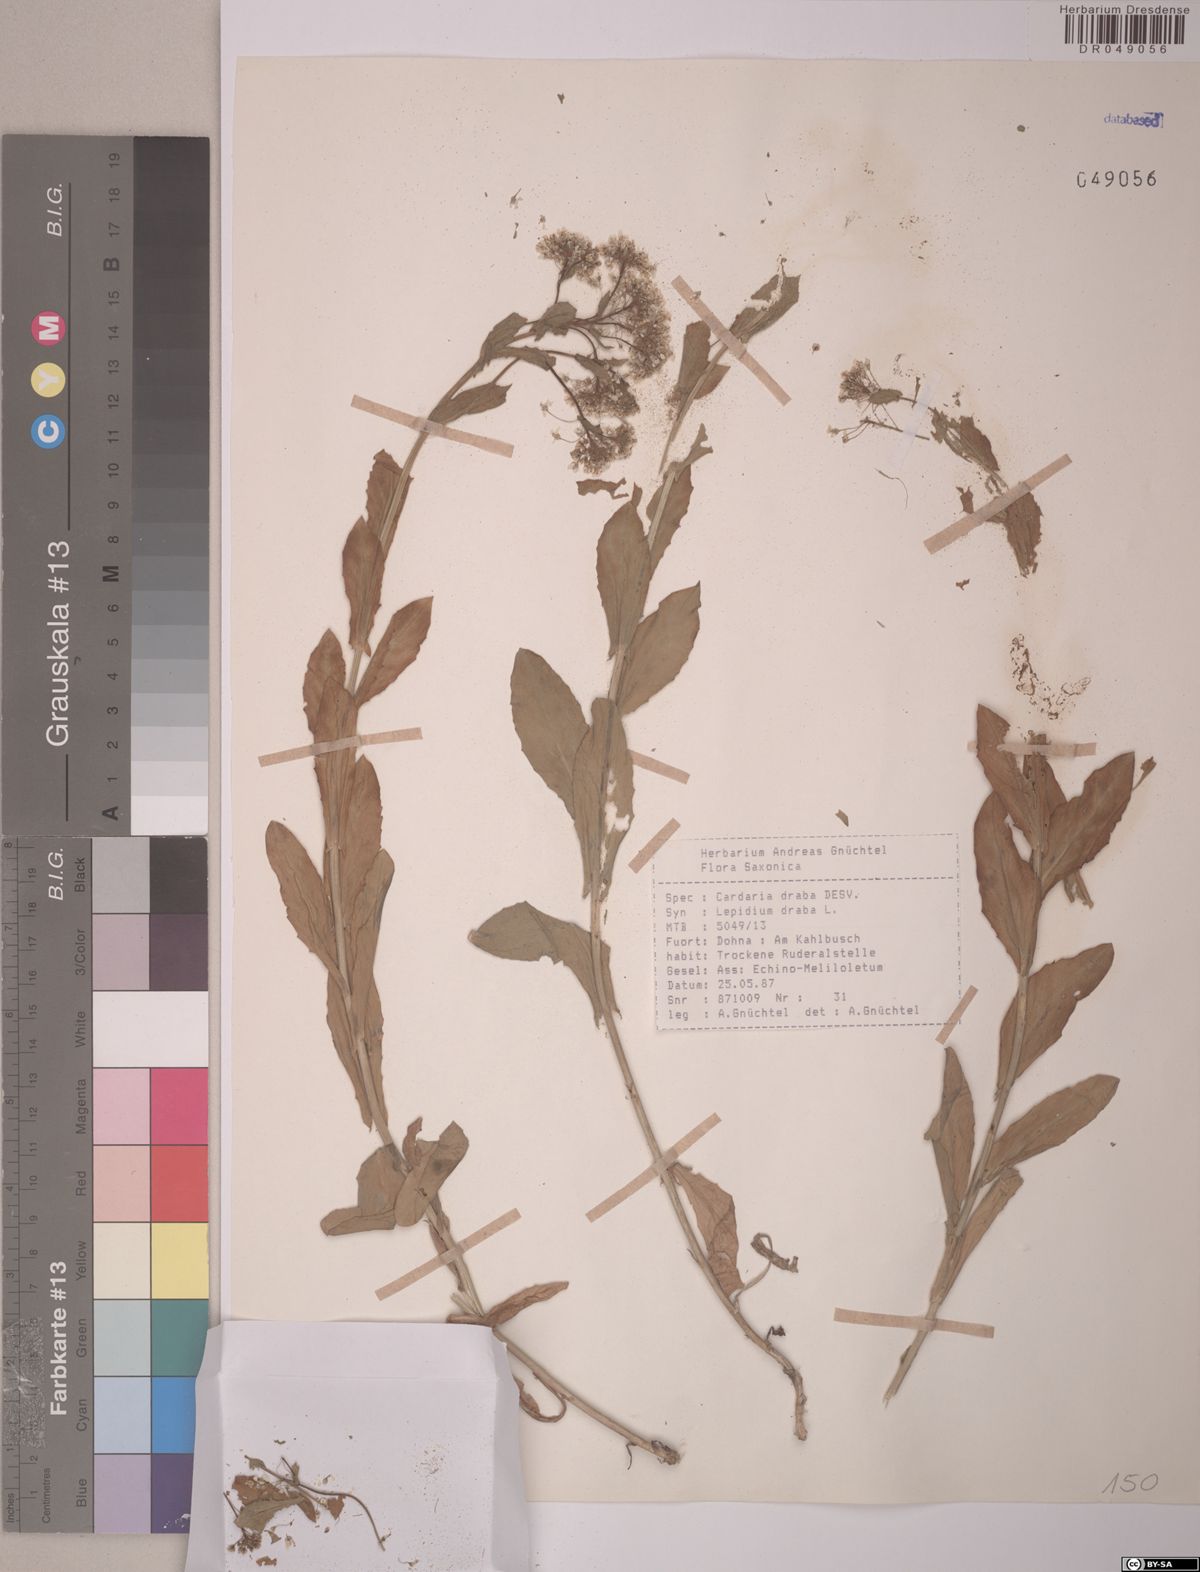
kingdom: Plantae
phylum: Tracheophyta
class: Magnoliopsida
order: Brassicales
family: Brassicaceae
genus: Lepidium
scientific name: Lepidium draba
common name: Hoary cress
